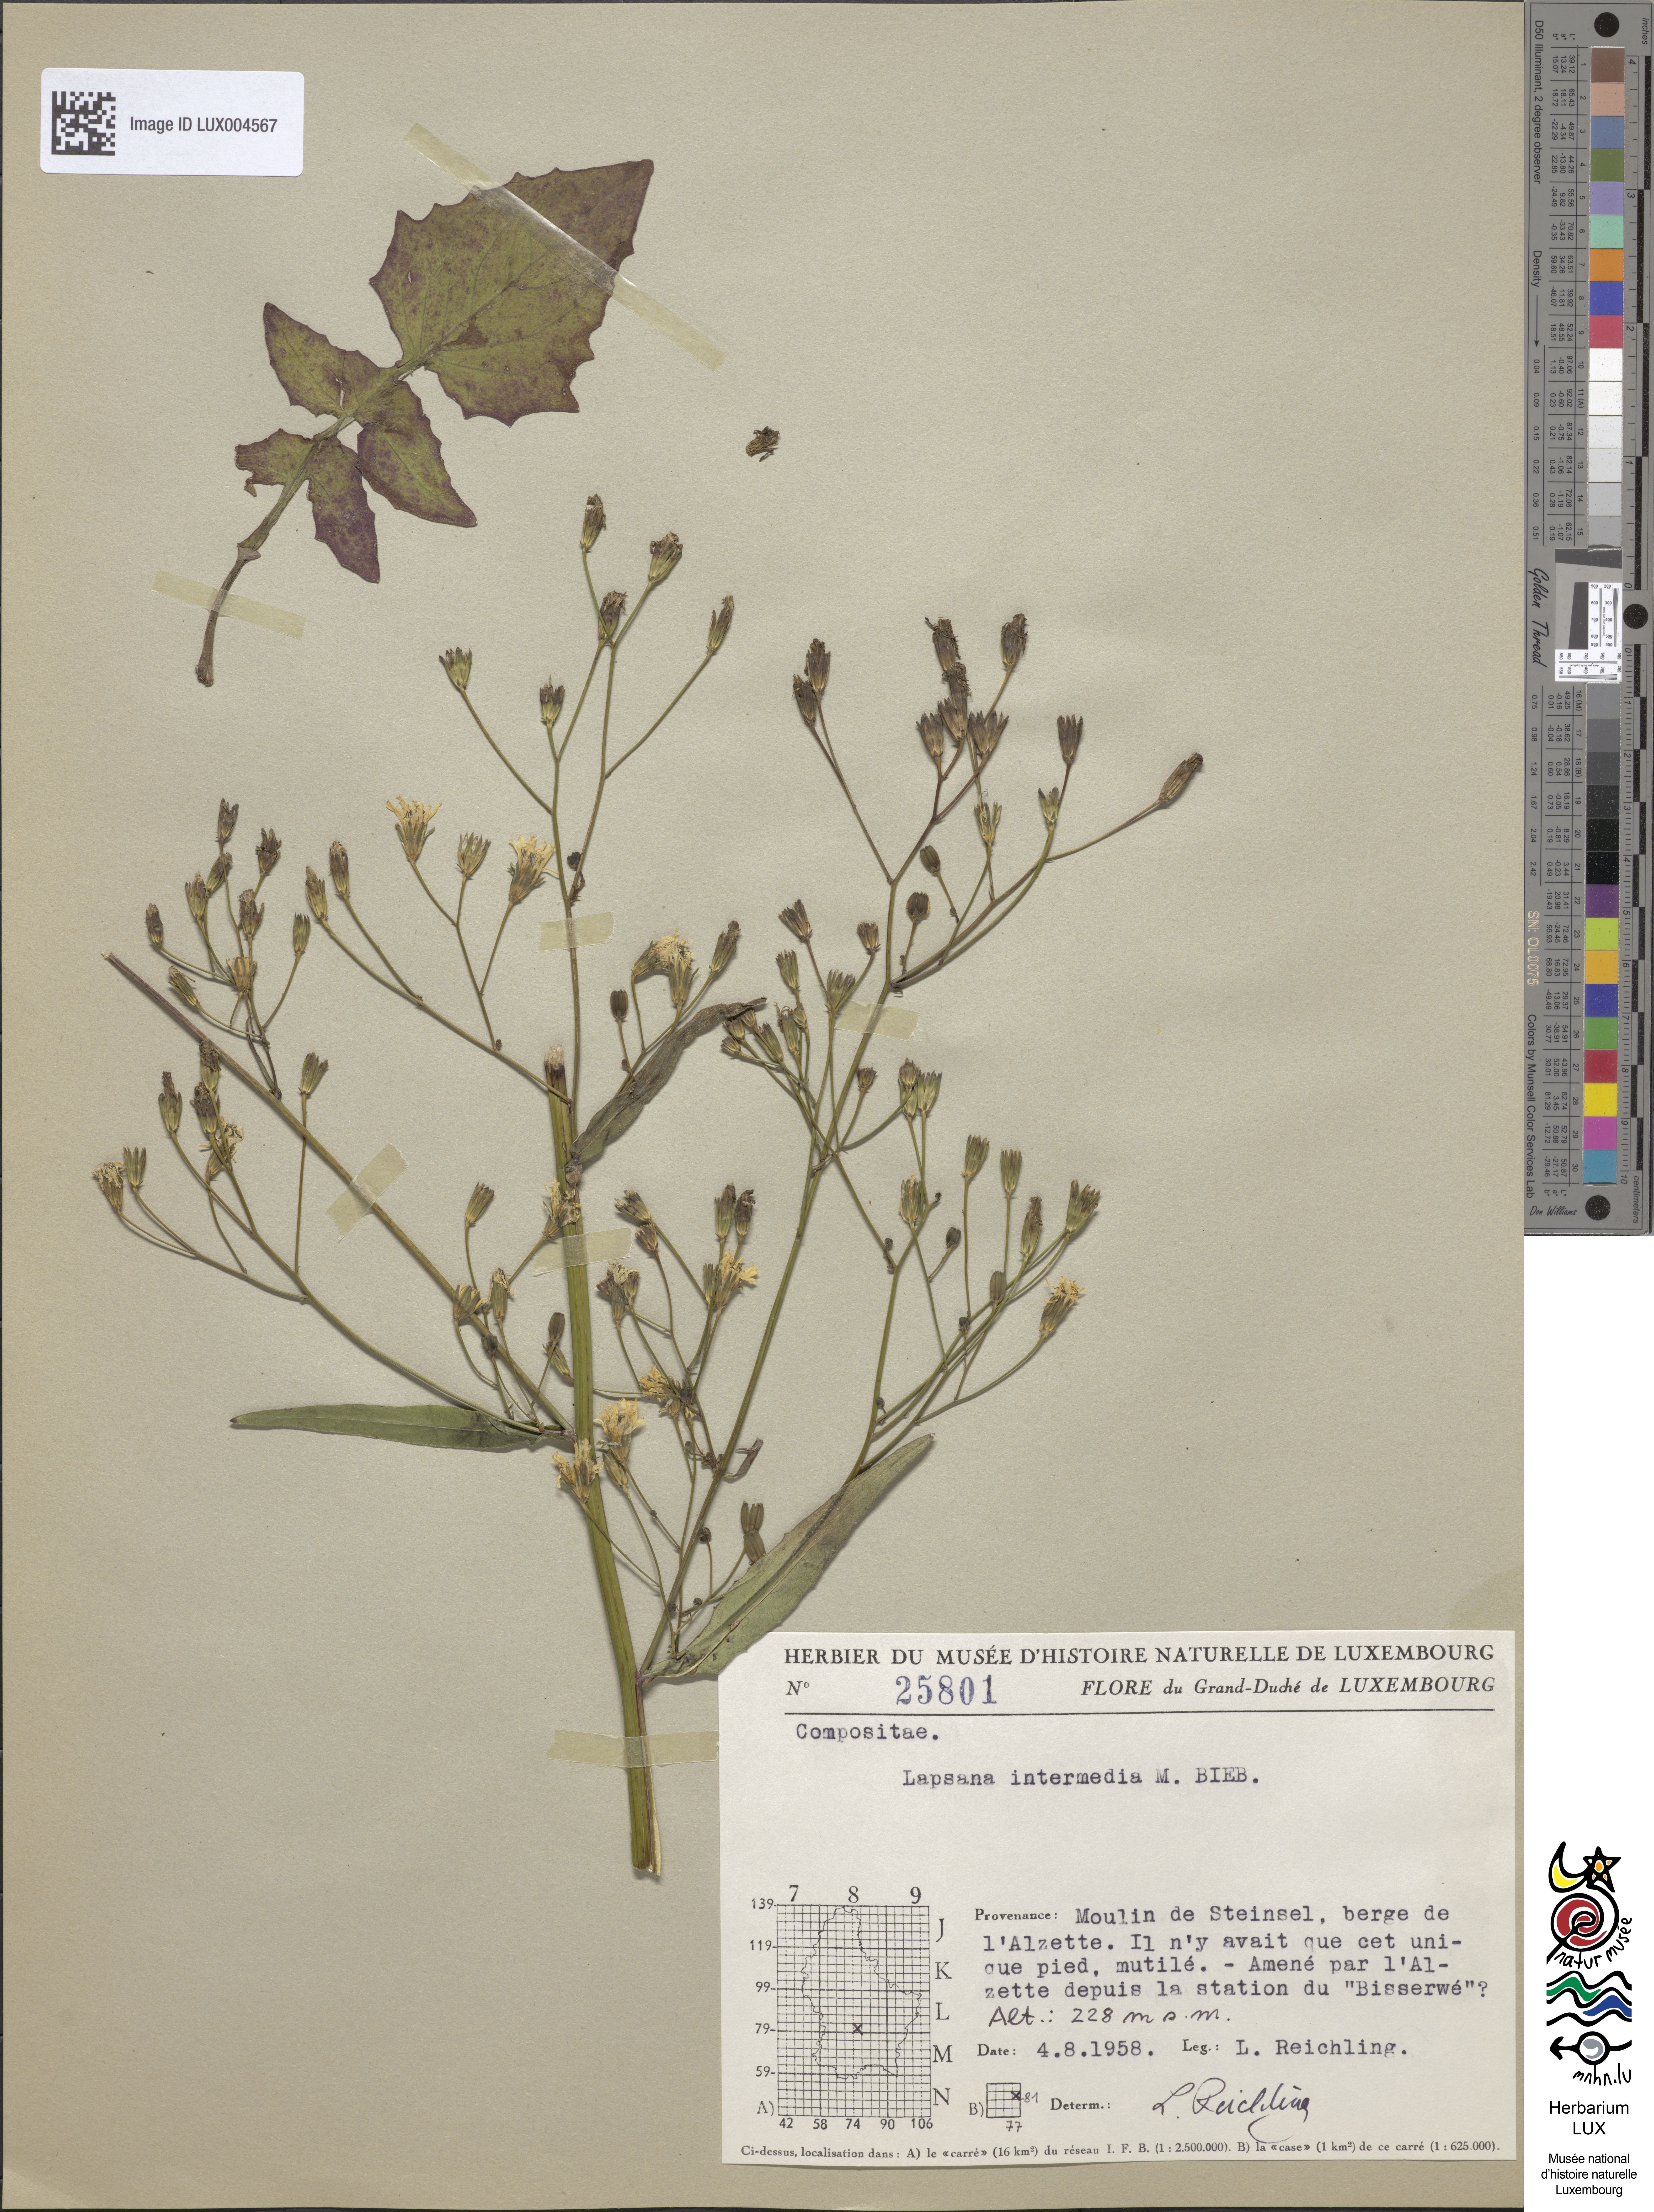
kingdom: Plantae
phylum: Tracheophyta
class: Magnoliopsida
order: Asterales
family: Asteraceae
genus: Lapsana
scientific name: Lapsana communis
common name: Nipplewort
